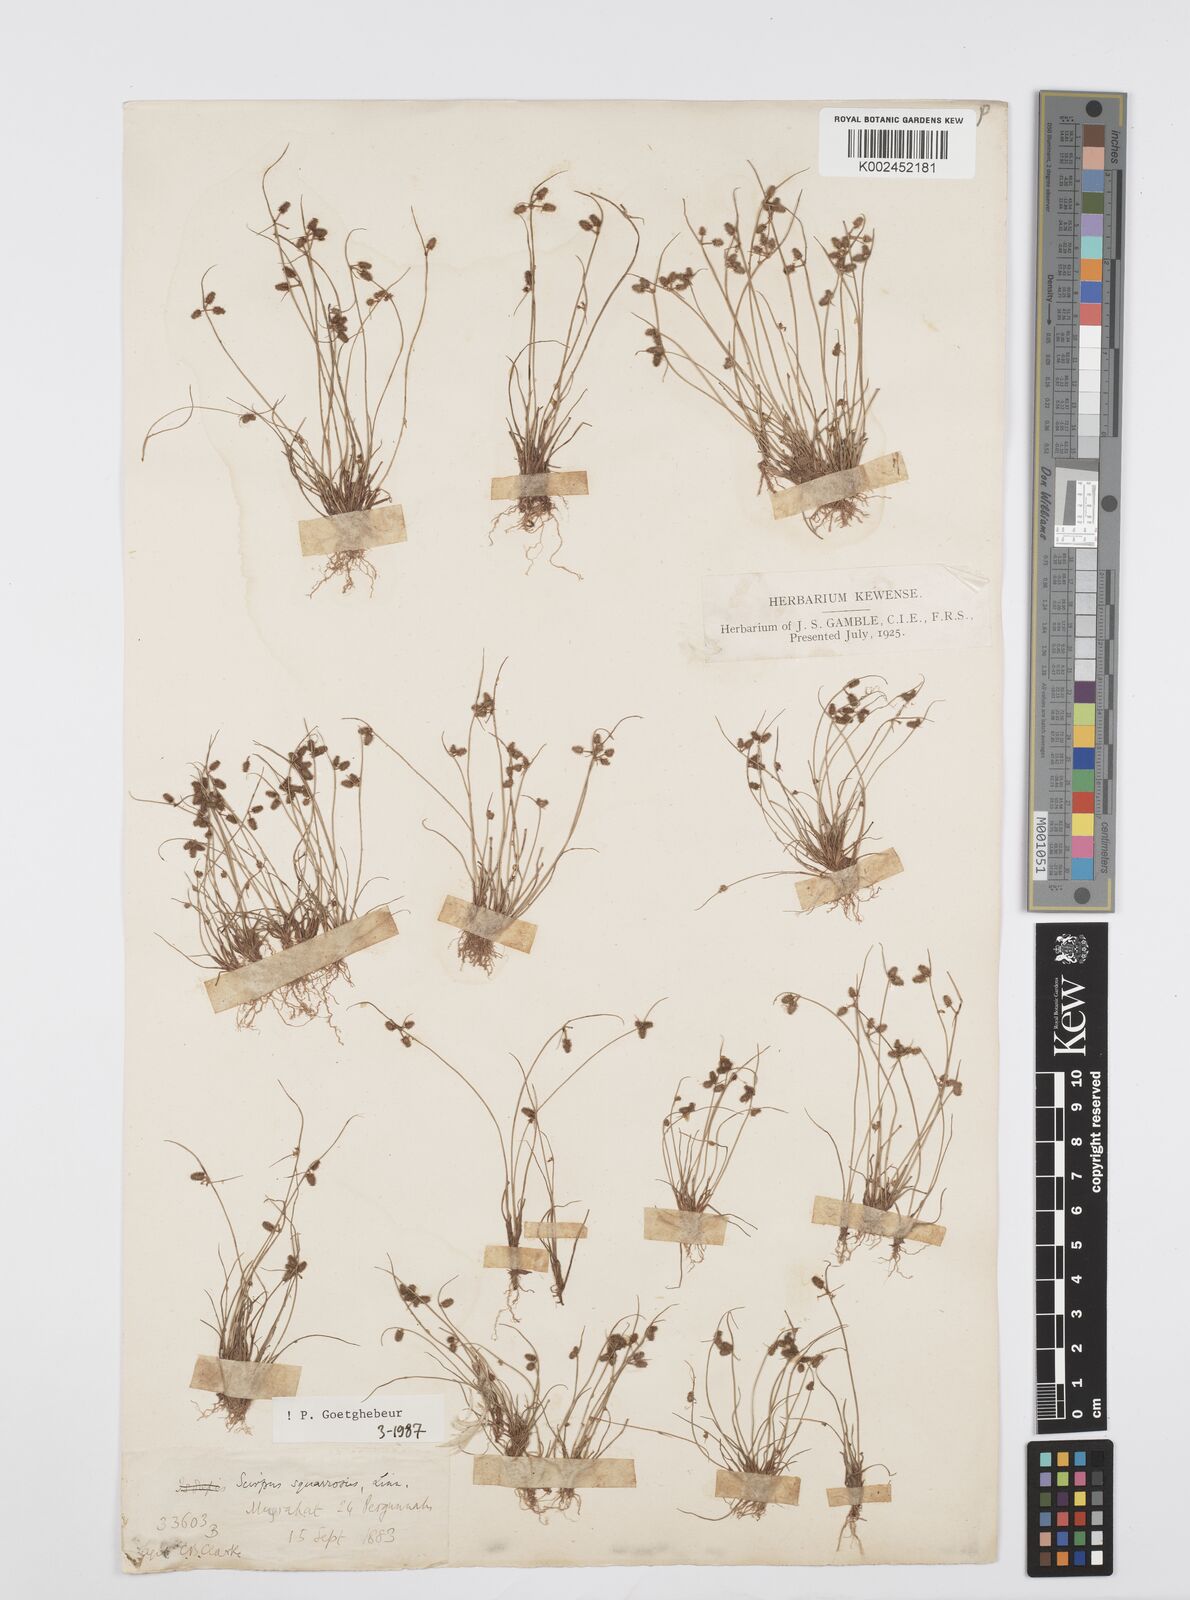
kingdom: Plantae
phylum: Tracheophyta
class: Liliopsida
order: Poales
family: Cyperaceae
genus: Cyperus
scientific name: Cyperus squarrosus
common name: Awned cyperus
